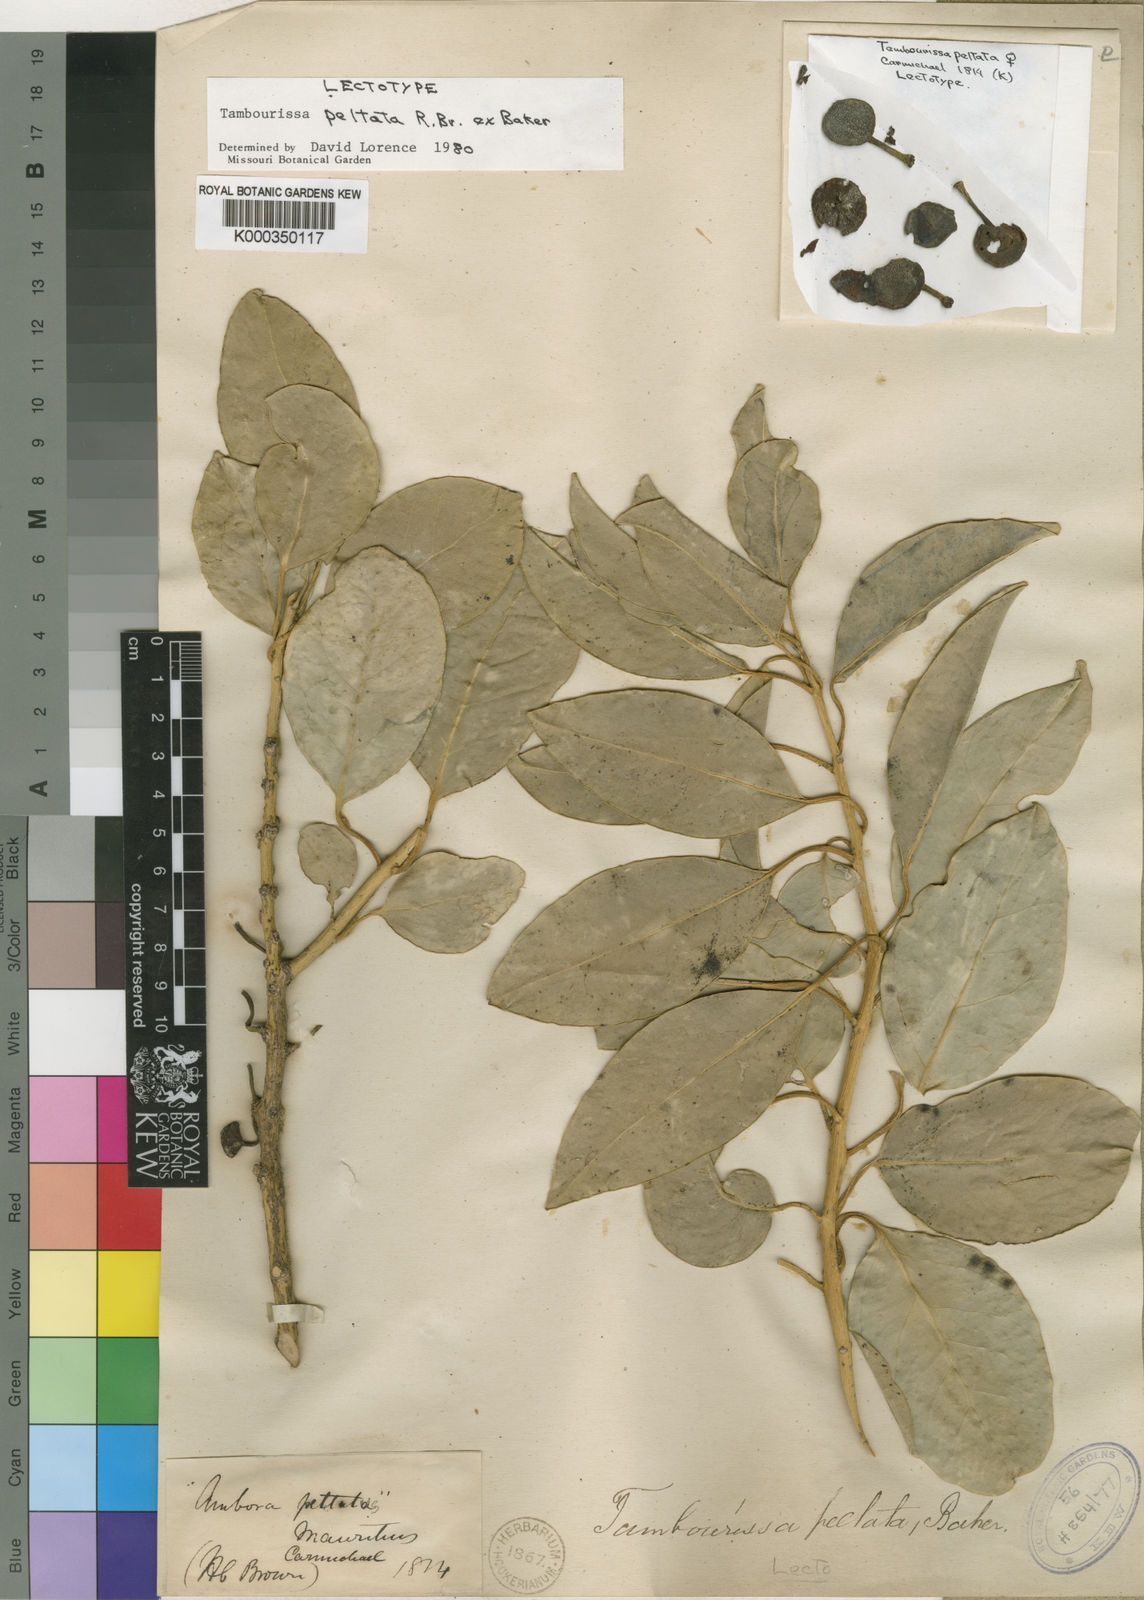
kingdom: Plantae
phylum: Tracheophyta
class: Magnoliopsida
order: Laurales
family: Monimiaceae
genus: Tambourissa
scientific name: Tambourissa peltata
